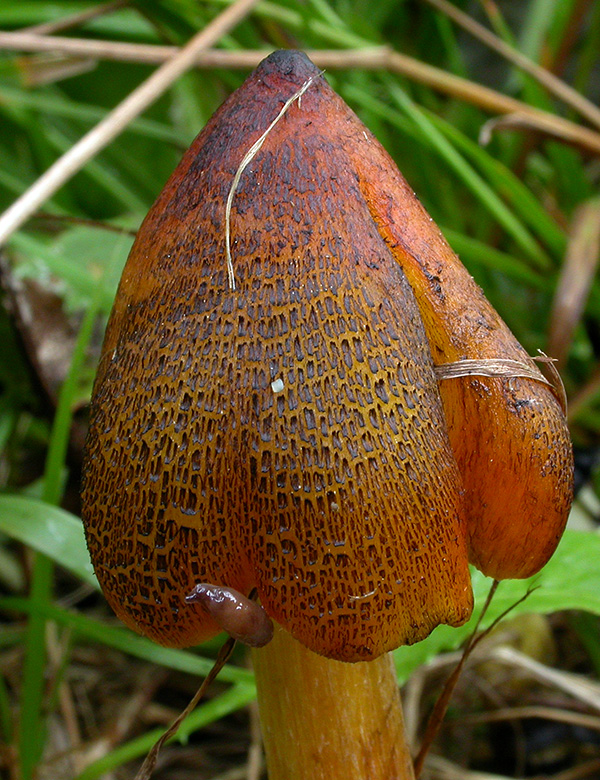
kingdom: Fungi
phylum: Basidiomycota
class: Agaricomycetes
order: Agaricales
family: Hygrophoraceae
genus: Hygrocybe
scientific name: Hygrocybe conica
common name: kegle-vokshat
